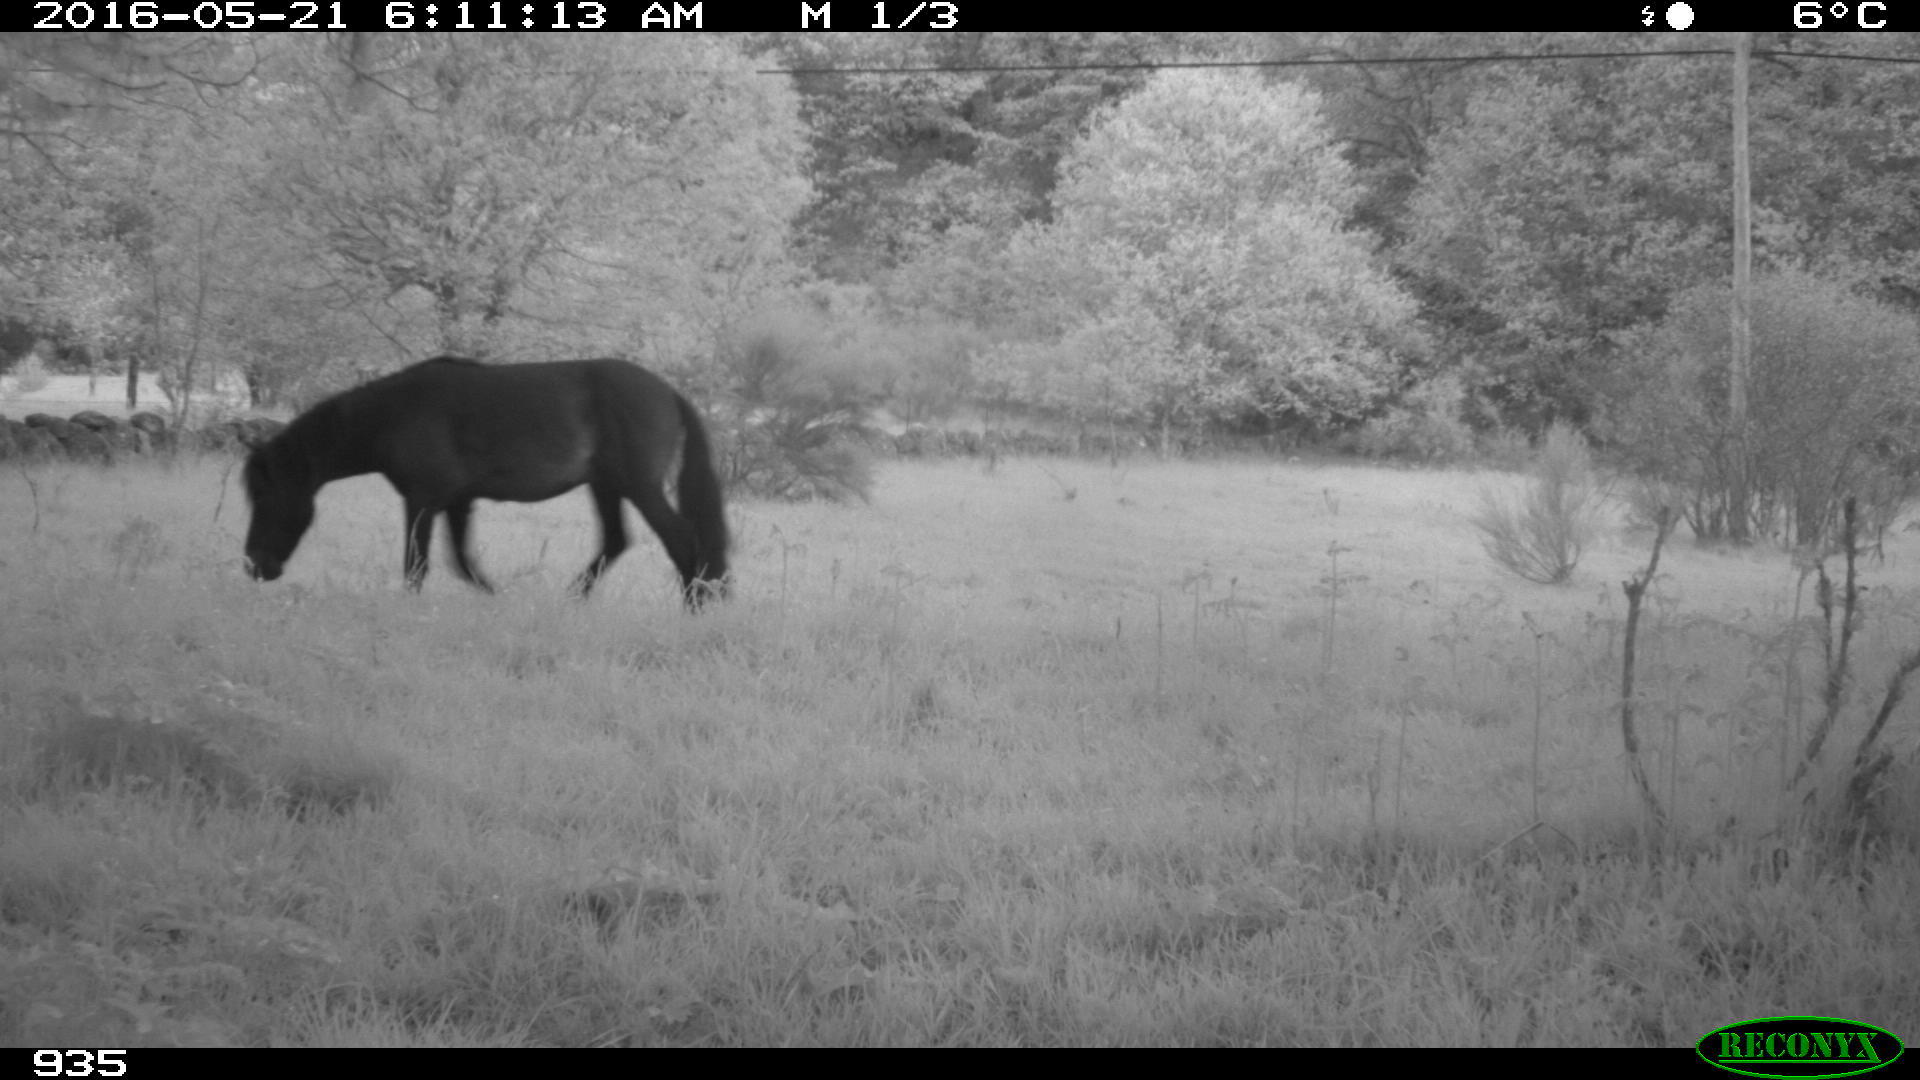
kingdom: Animalia
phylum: Chordata
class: Mammalia
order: Perissodactyla
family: Equidae
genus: Equus
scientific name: Equus caballus
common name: Horse
